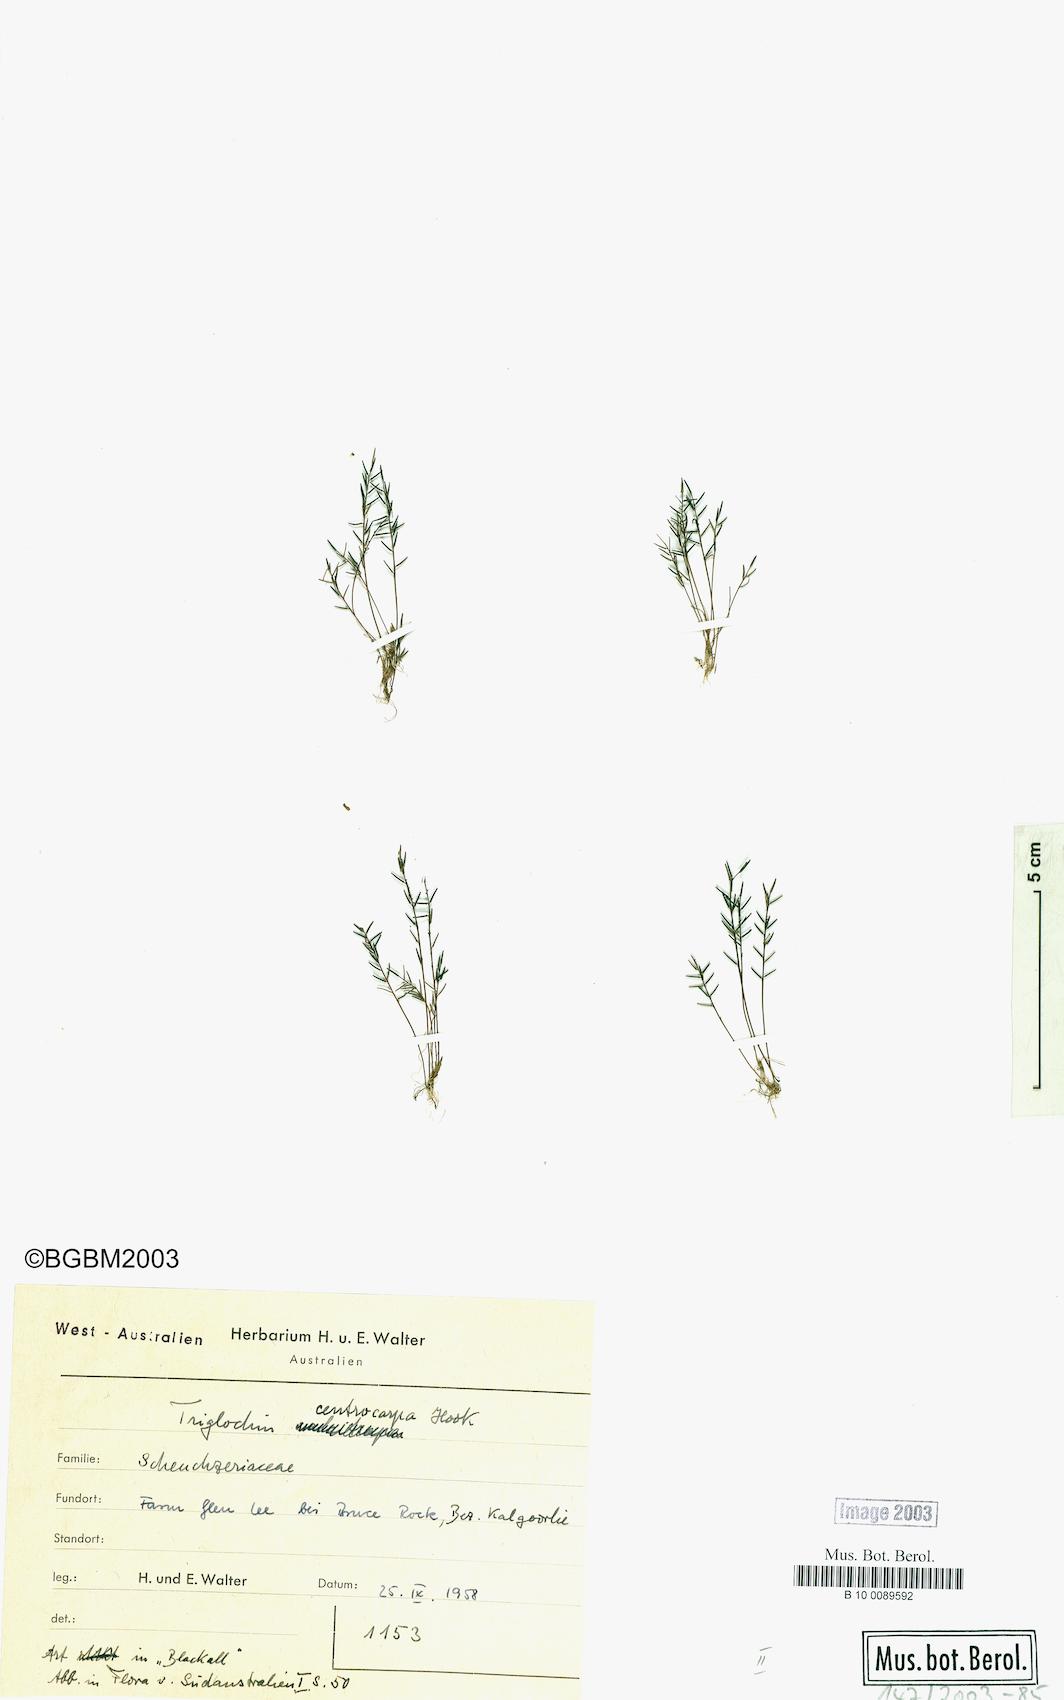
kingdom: Plantae
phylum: Tracheophyta
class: Liliopsida
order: Alismatales
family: Juncaginaceae
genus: Triglochin
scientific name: Triglochin centrocarpa
